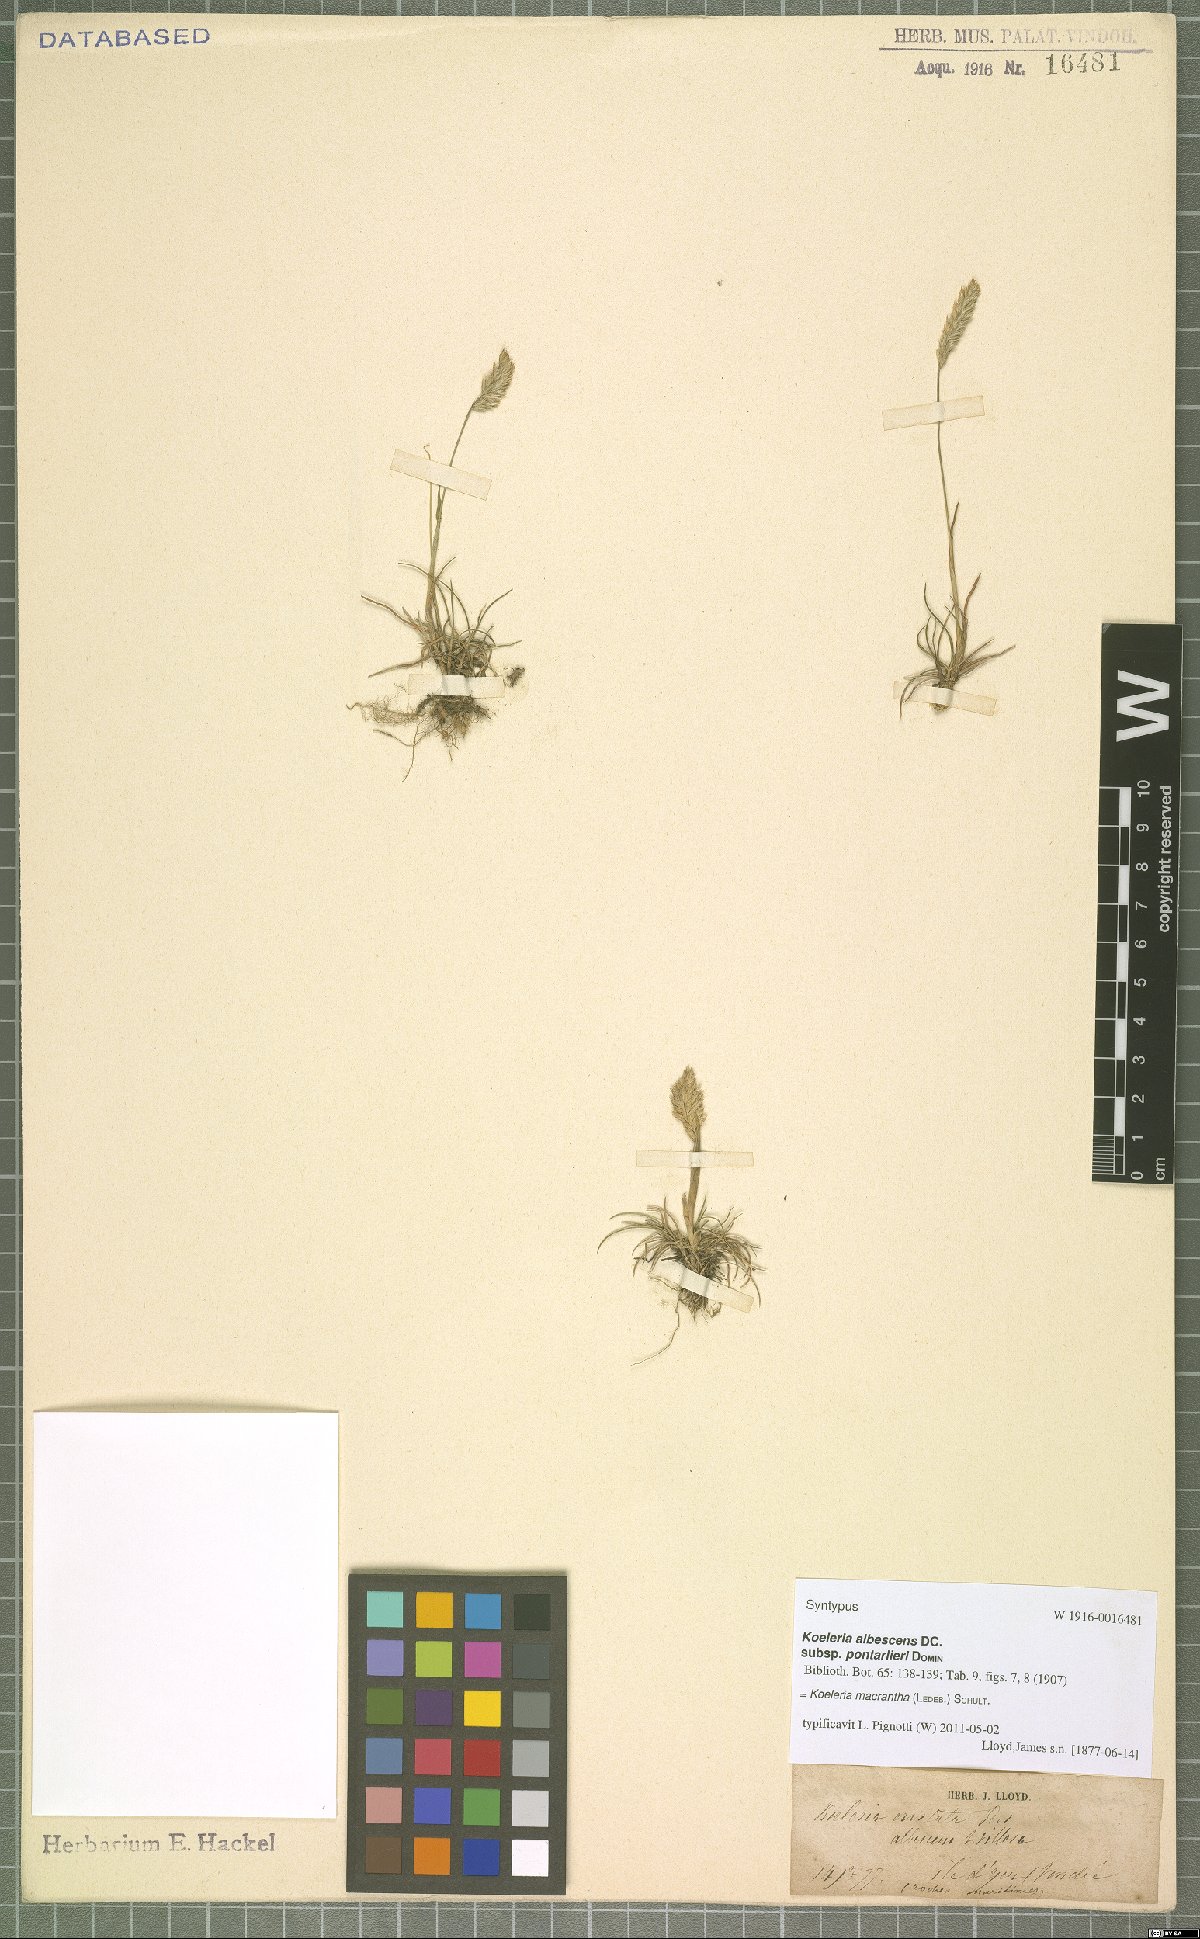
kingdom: Plantae
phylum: Tracheophyta
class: Liliopsida
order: Poales
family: Poaceae
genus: Koeleria
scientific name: Koeleria macrantha
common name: Crested hair-grass
